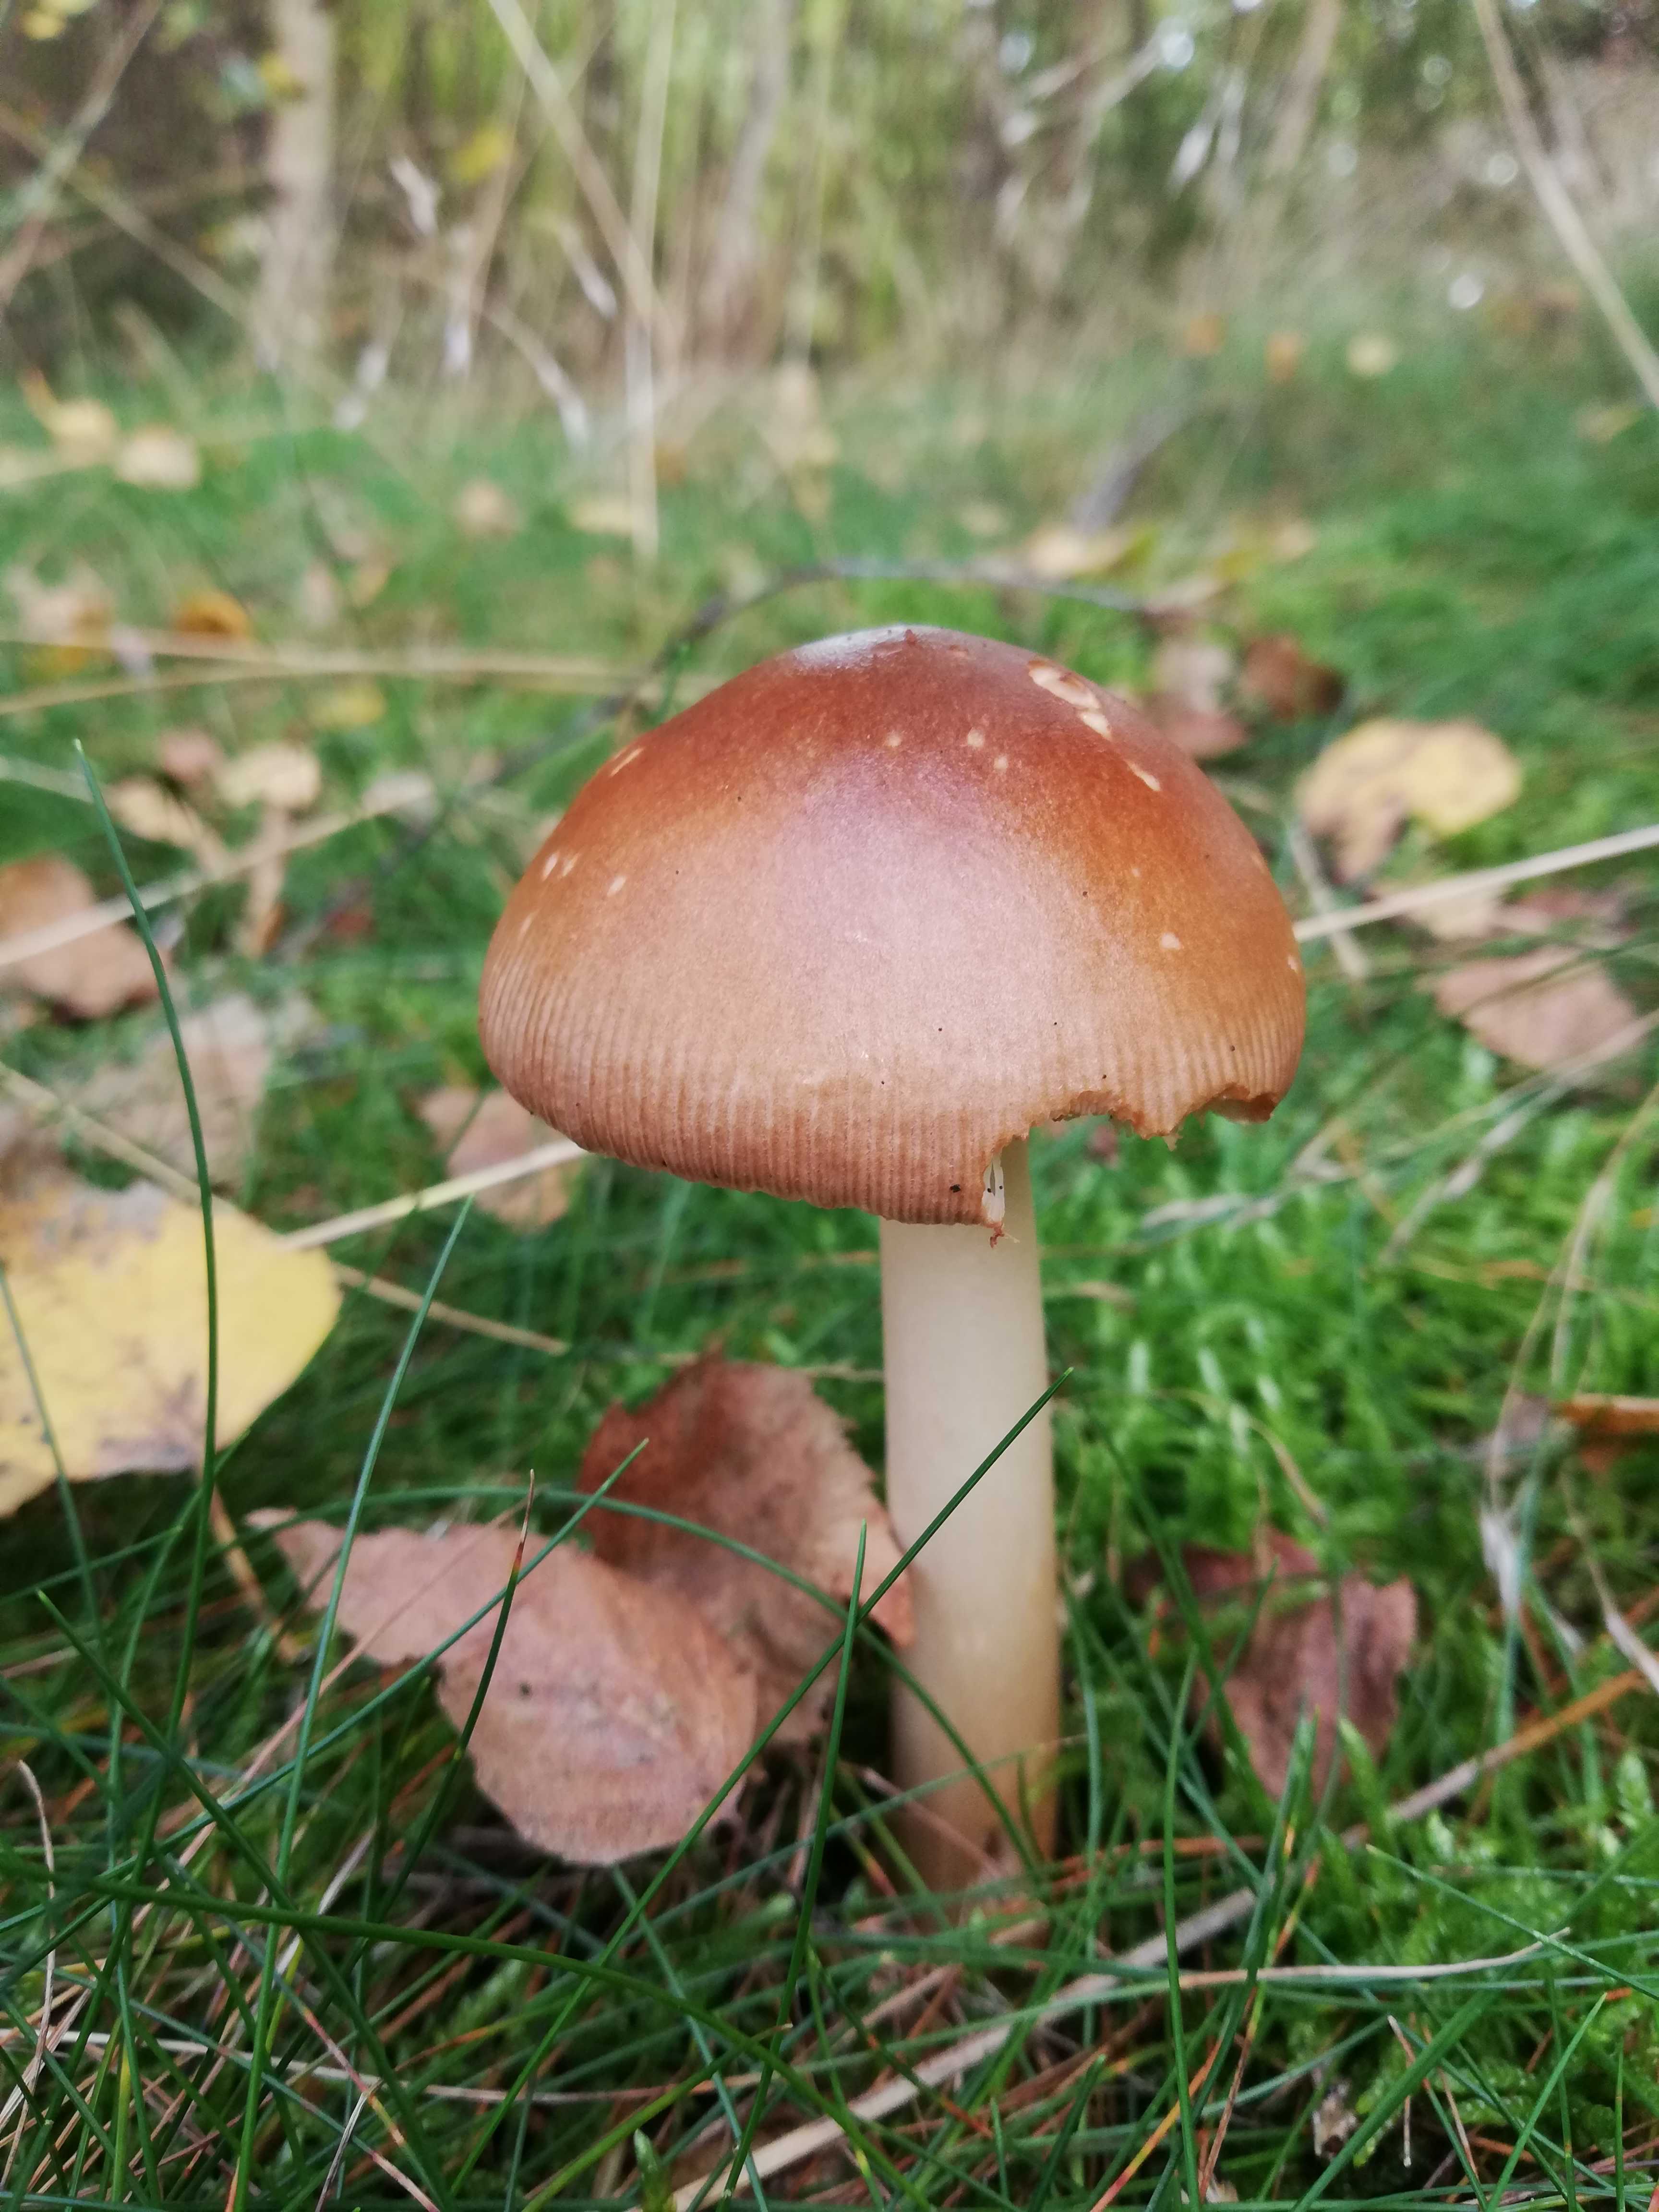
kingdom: Fungi
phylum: Basidiomycota
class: Agaricomycetes
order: Agaricales
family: Amanitaceae
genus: Amanita
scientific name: Amanita fulva
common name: brun kam-fluesvamp
